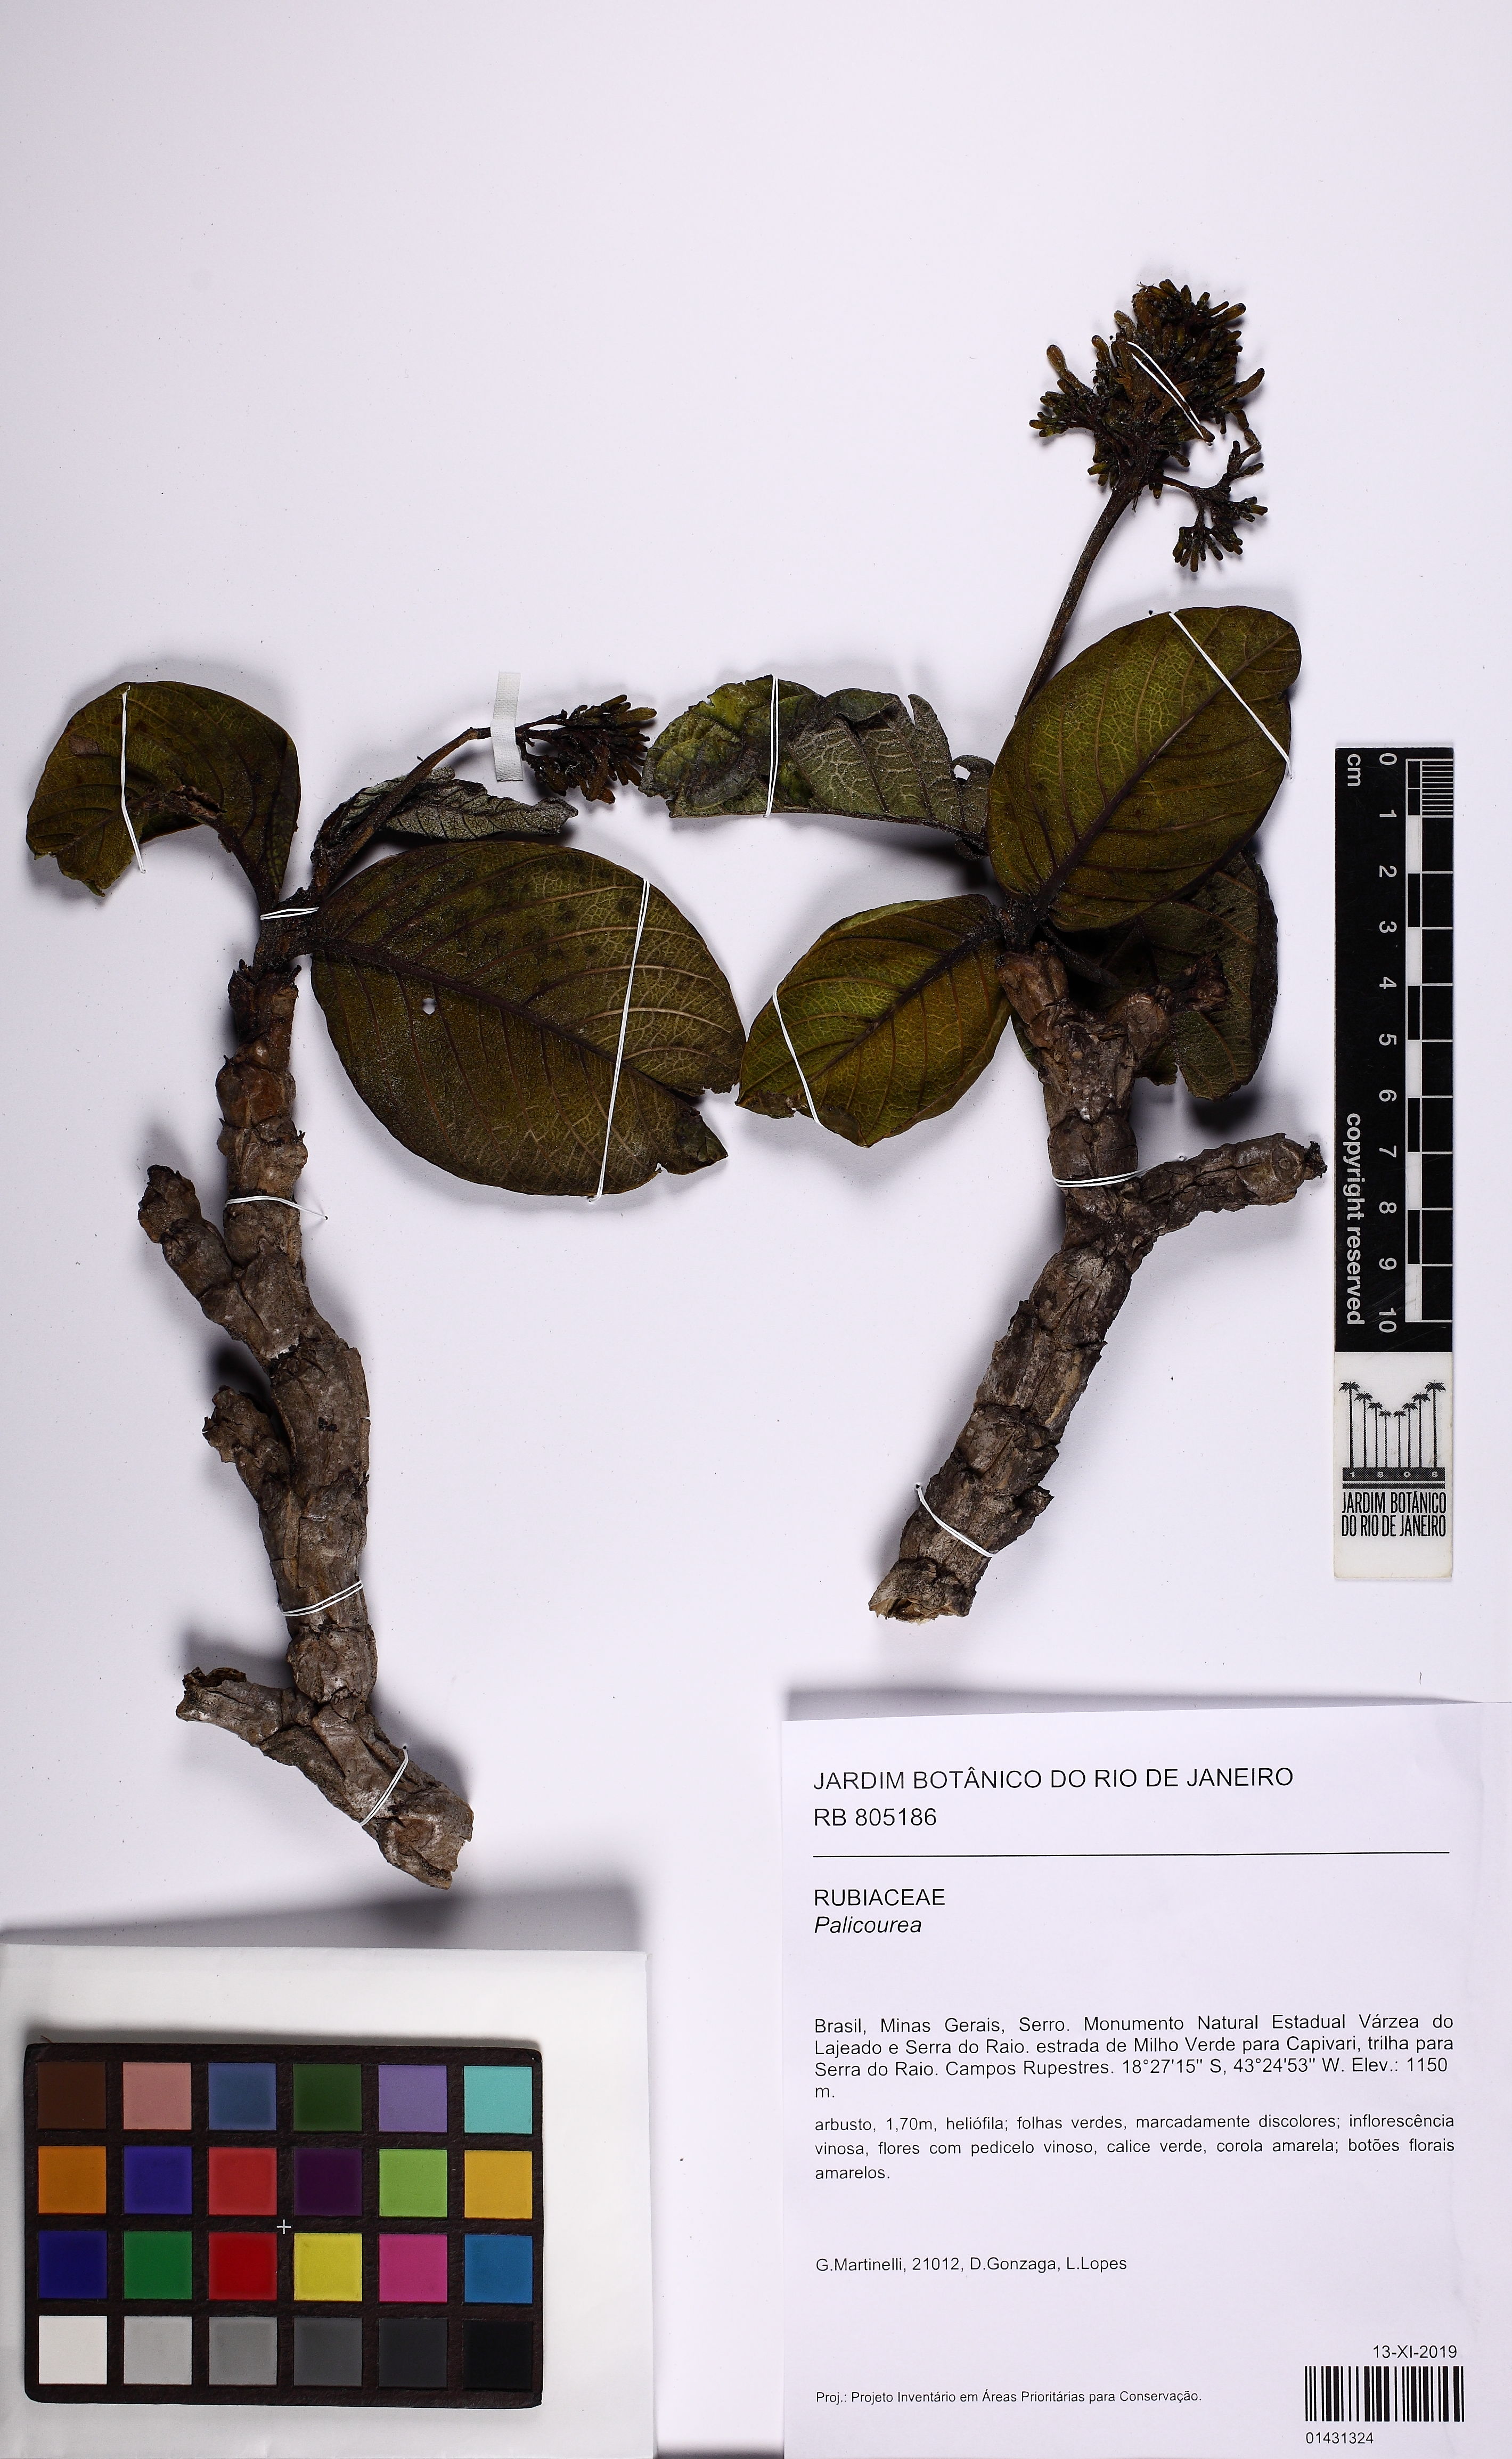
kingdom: Plantae
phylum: Tracheophyta
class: Magnoliopsida
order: Gentianales
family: Rubiaceae
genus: Palicourea
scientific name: Palicourea rigida
